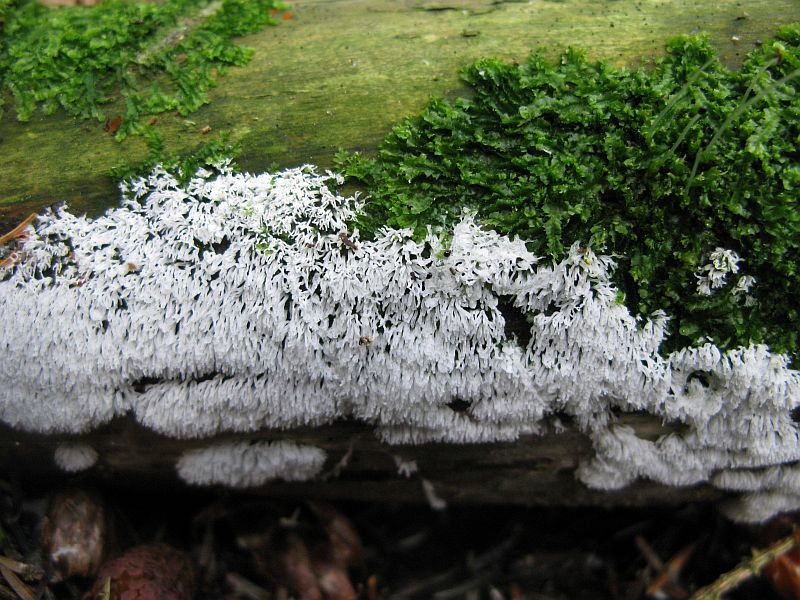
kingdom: Protozoa
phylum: Mycetozoa
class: Protosteliomycetes
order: Ceratiomyxales
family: Ceratiomyxaceae
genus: Ceratiomyxa
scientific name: Ceratiomyxa fruticulosa
